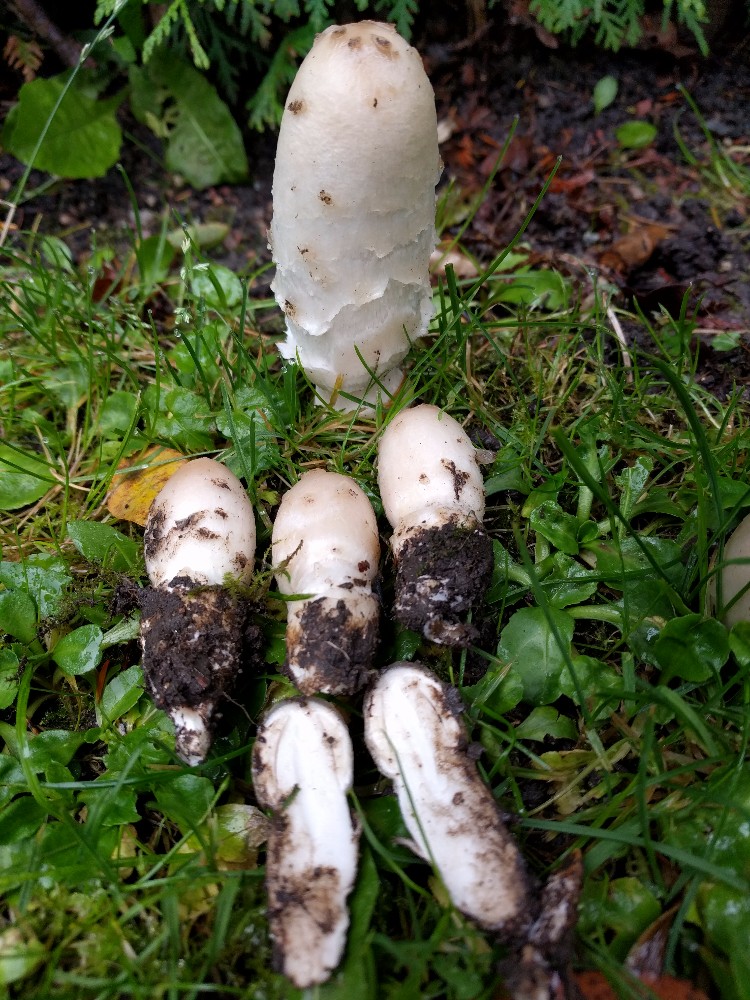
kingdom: Fungi
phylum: Basidiomycota
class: Agaricomycetes
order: Agaricales
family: Agaricaceae
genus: Coprinus
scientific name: Coprinus comatus
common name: stor parykhat
